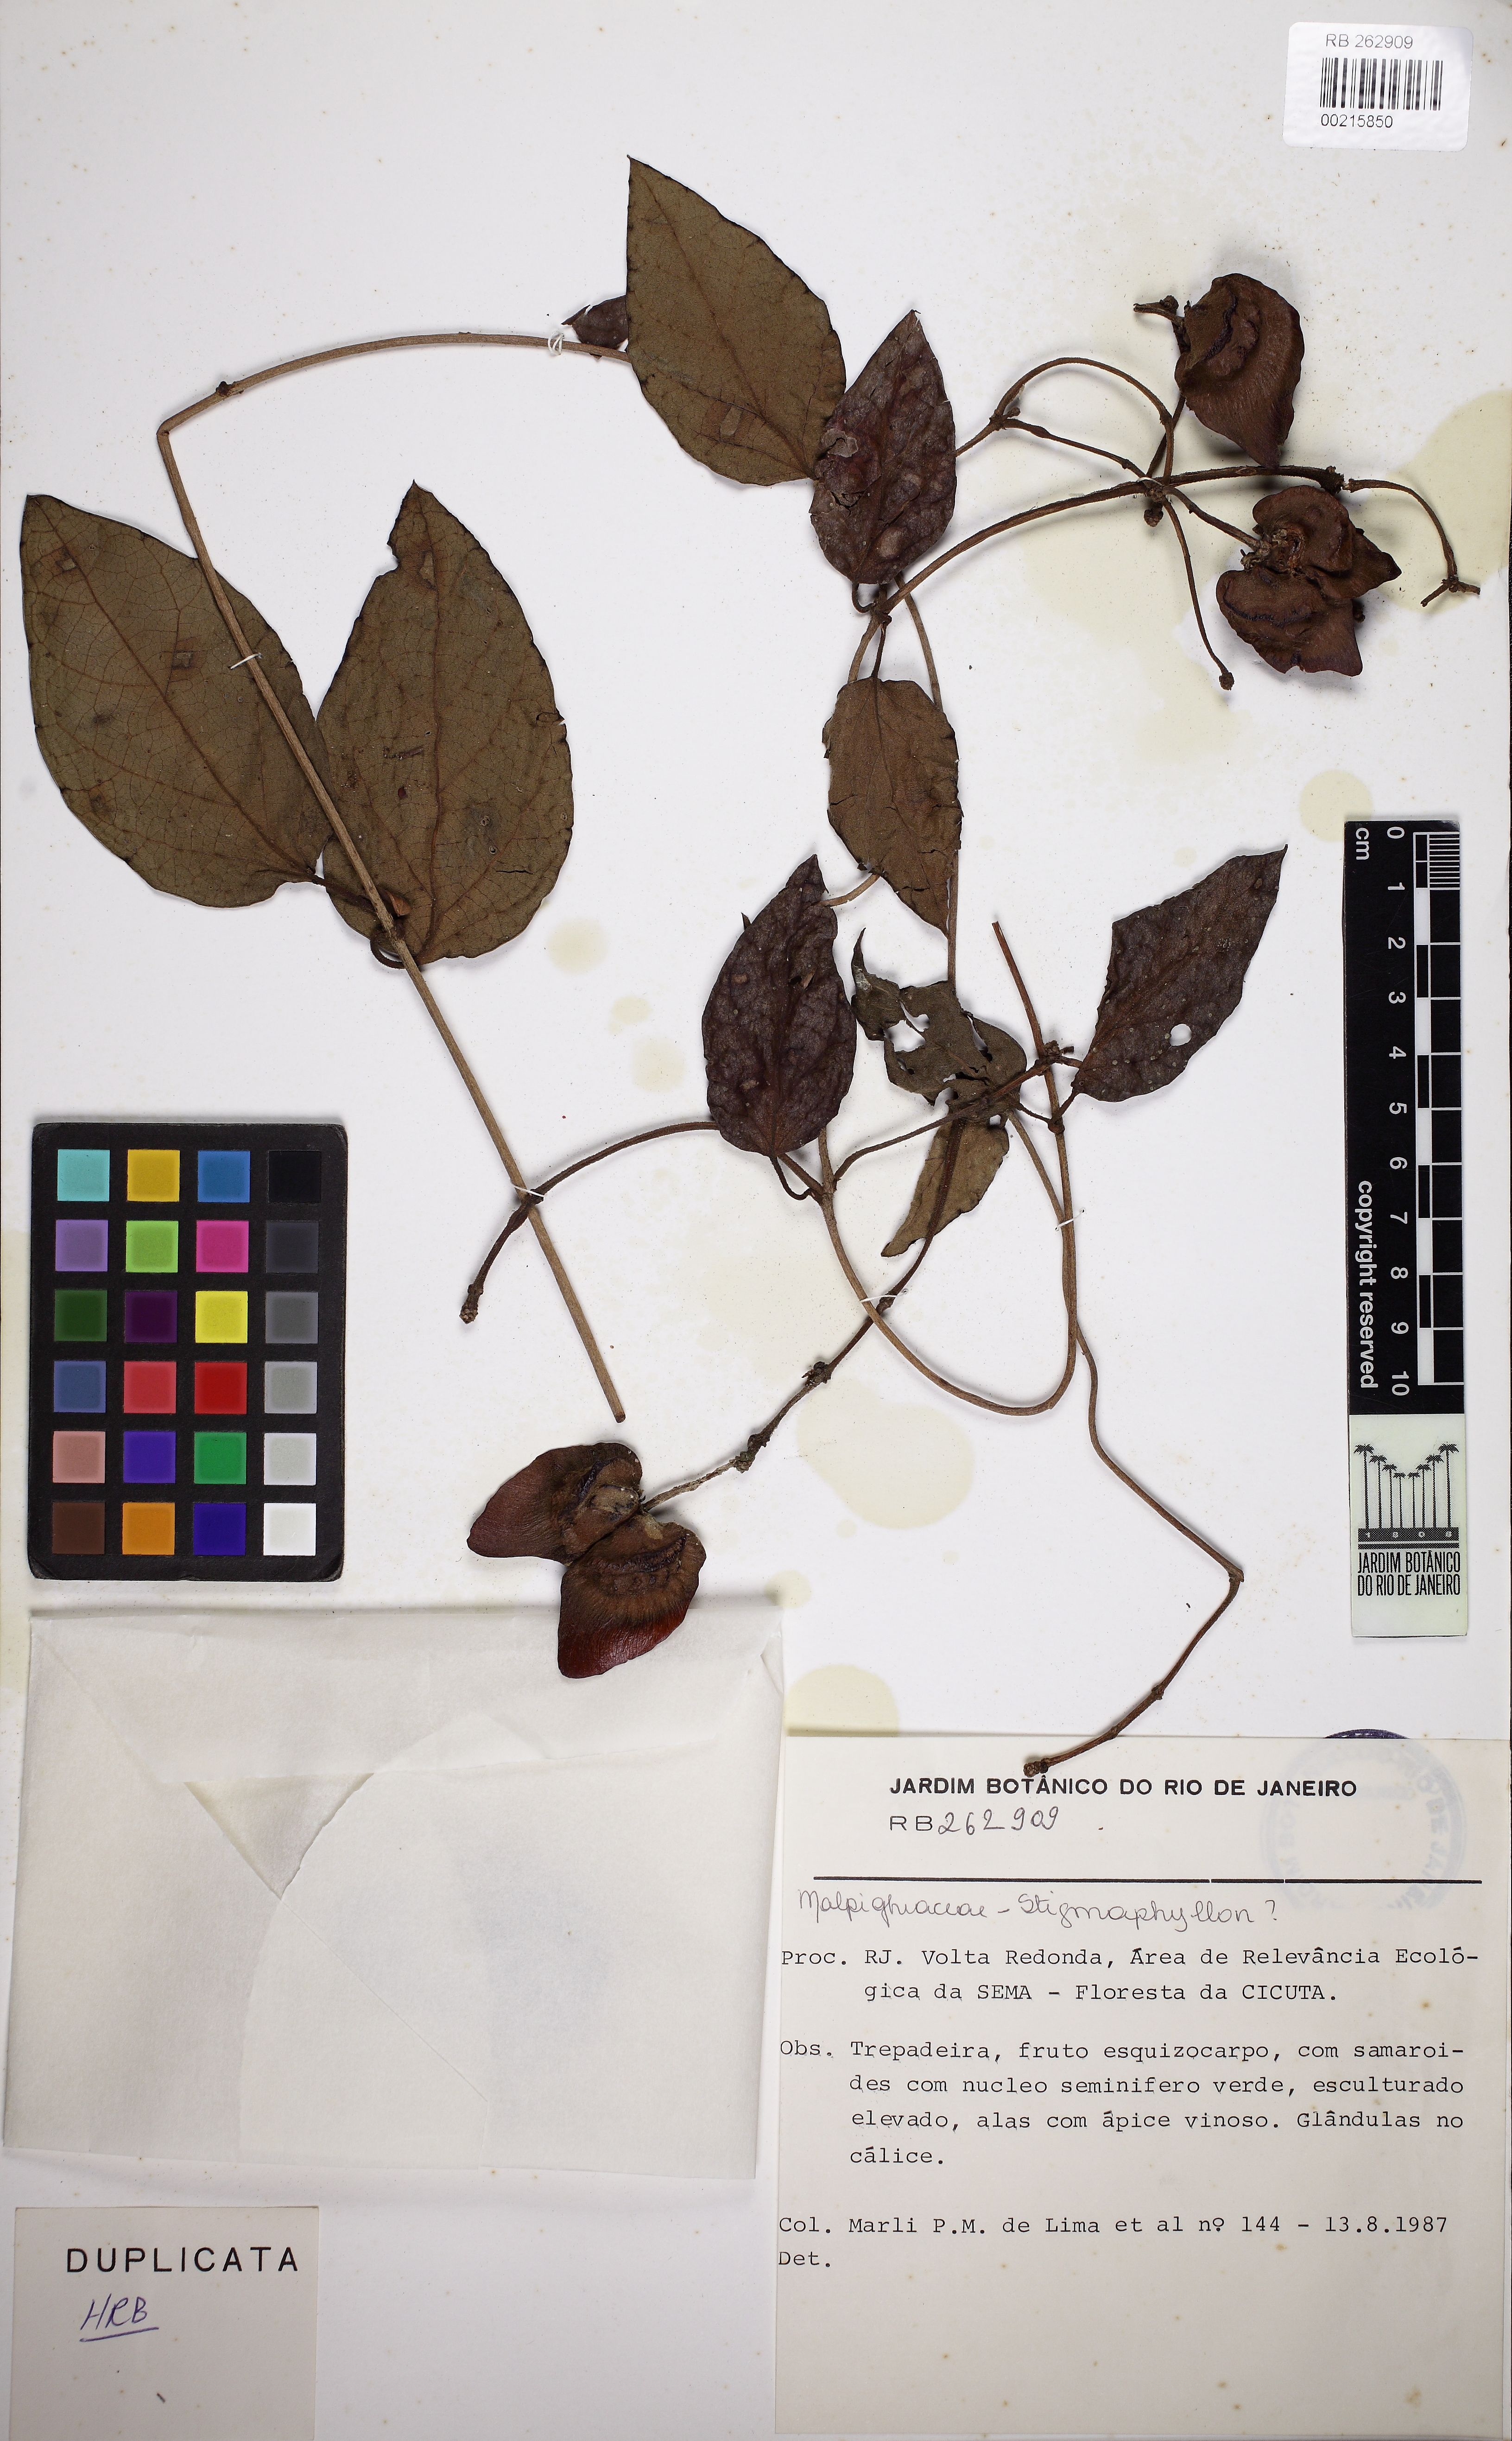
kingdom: Plantae
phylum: Tracheophyta
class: Magnoliopsida
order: Malpighiales
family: Malpighiaceae
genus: Stigmaphyllon
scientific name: Stigmaphyllon affine
